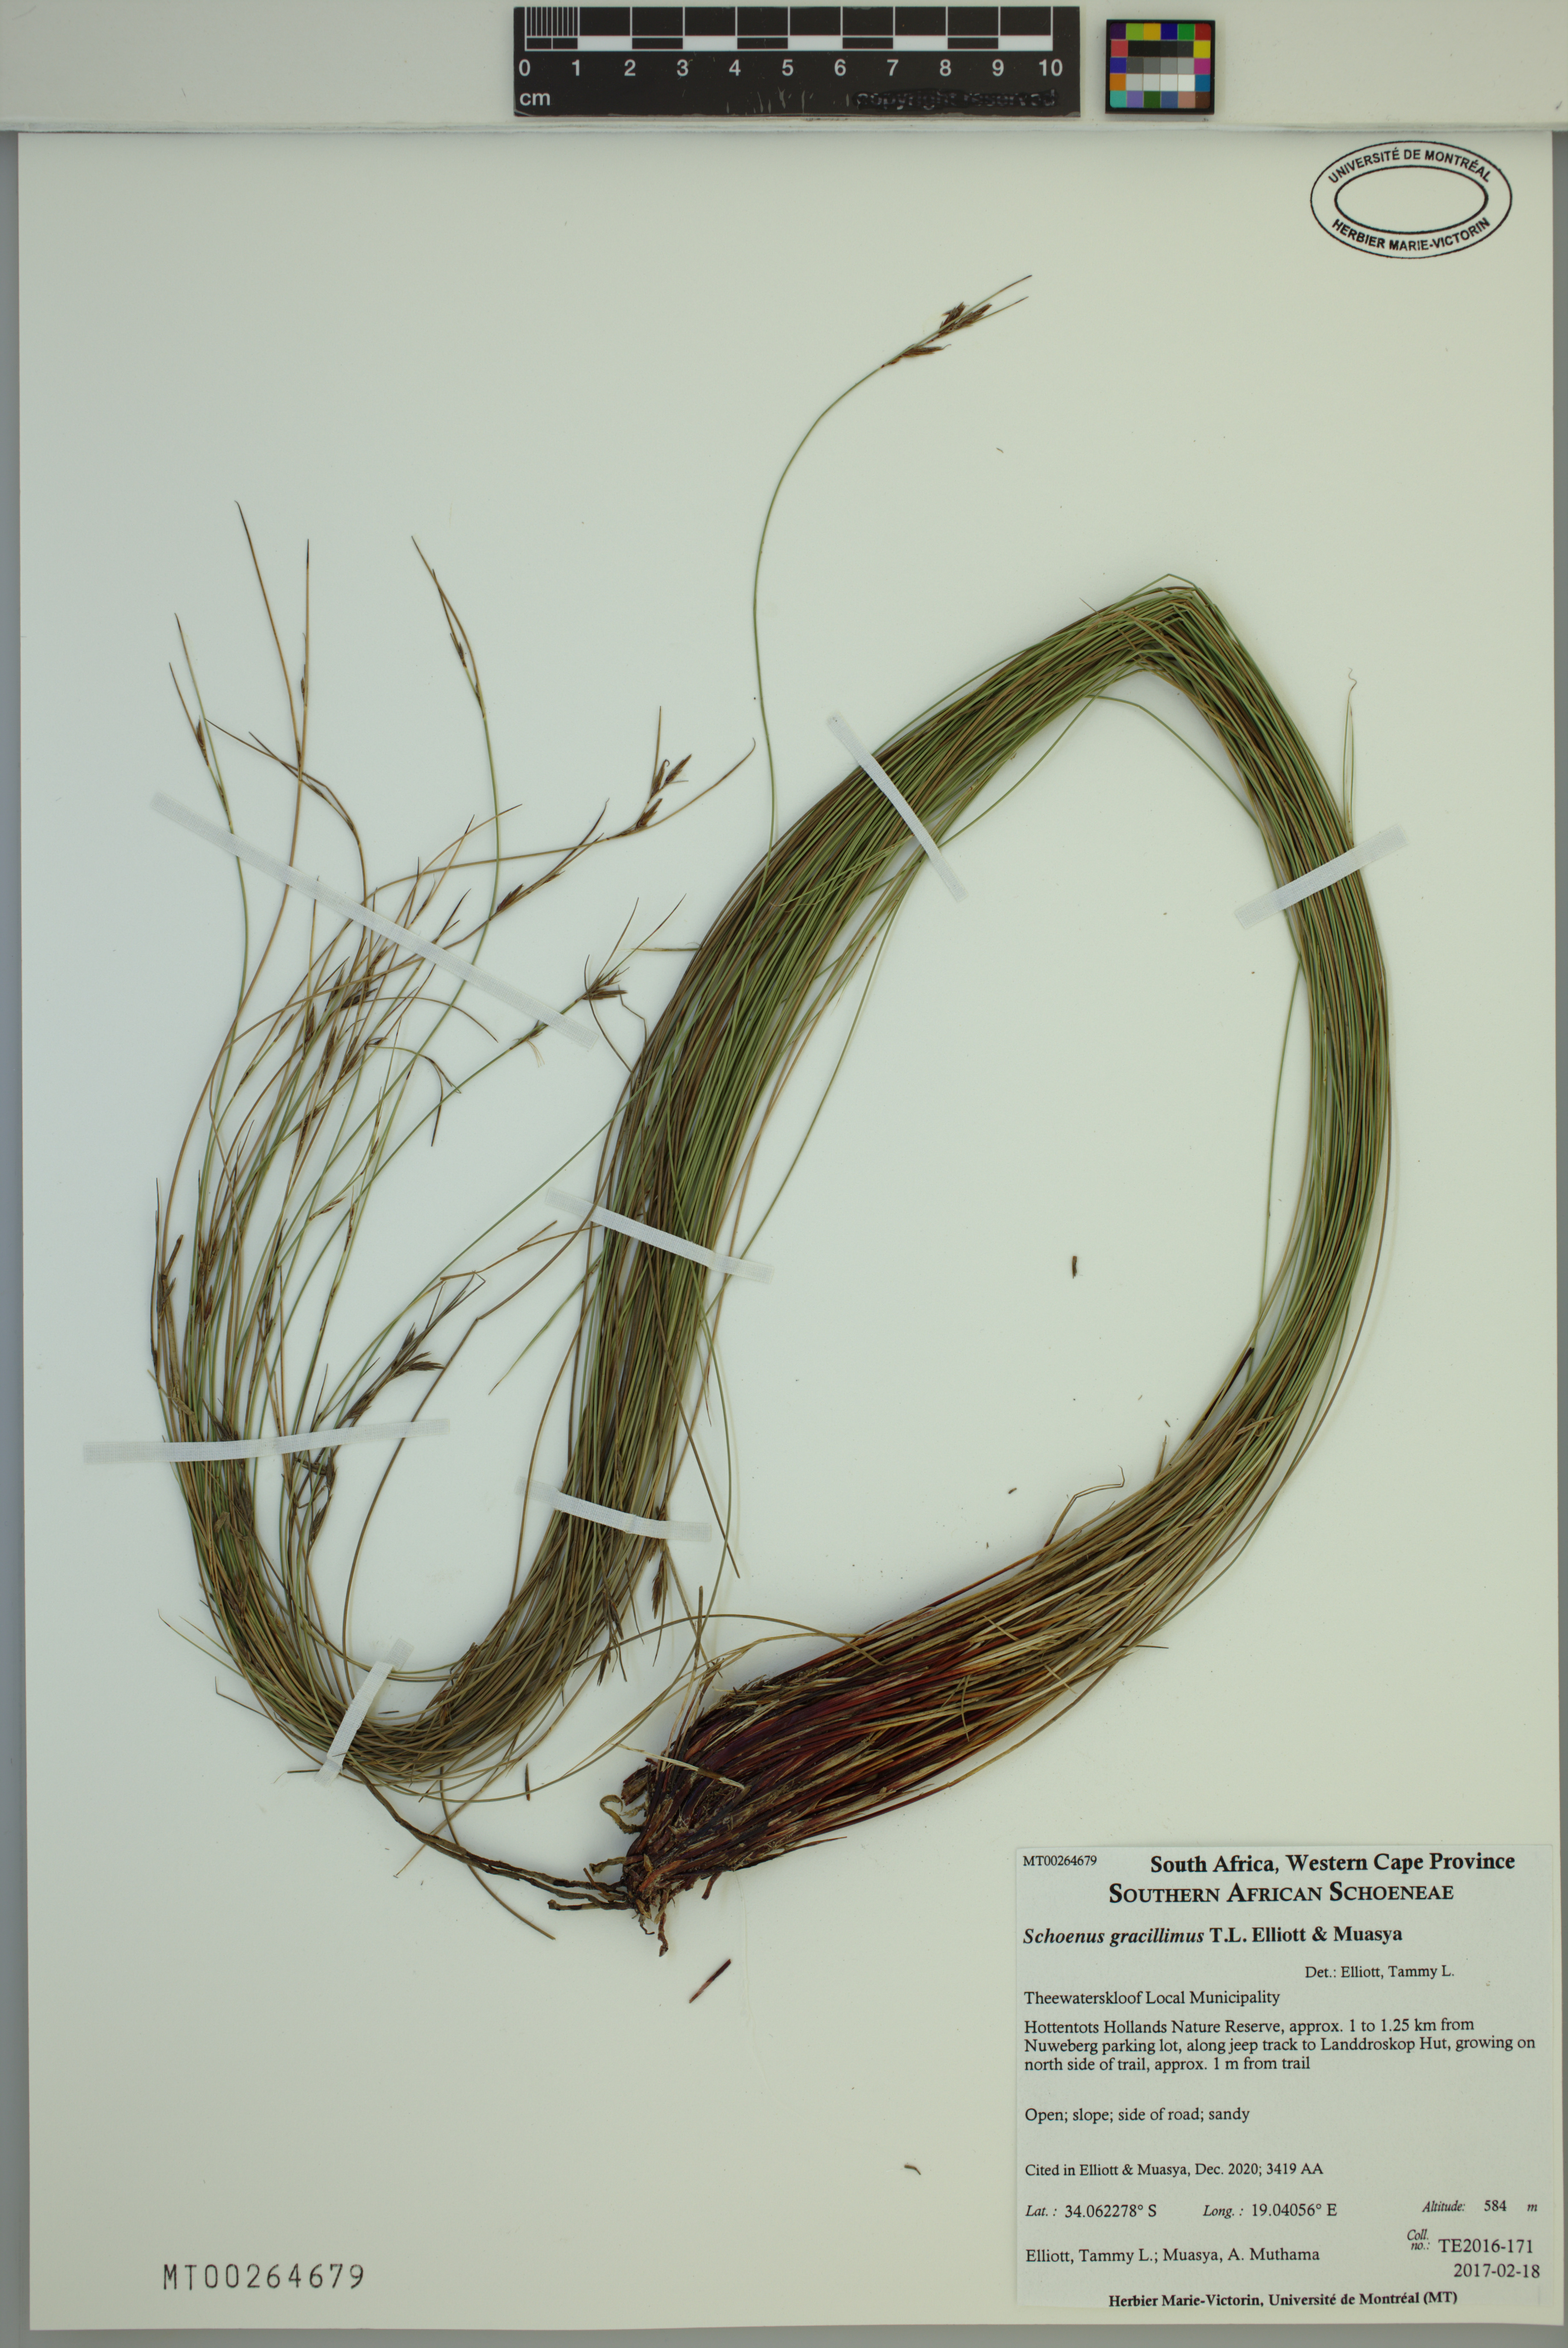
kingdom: Plantae
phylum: Tracheophyta
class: Liliopsida
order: Poales
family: Cyperaceae
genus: Schoenus
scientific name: Schoenus gracillimus
